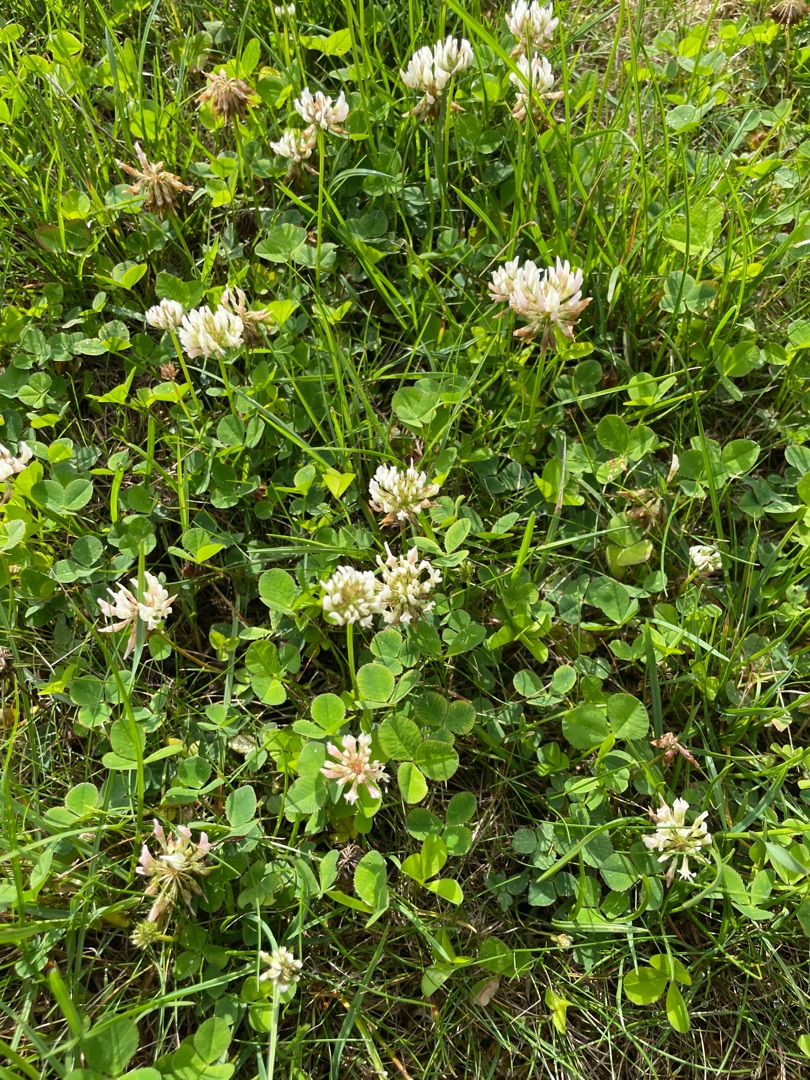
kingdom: Plantae
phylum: Tracheophyta
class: Magnoliopsida
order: Fabales
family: Fabaceae
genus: Trifolium
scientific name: Trifolium repens
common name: Hvid-kløver
